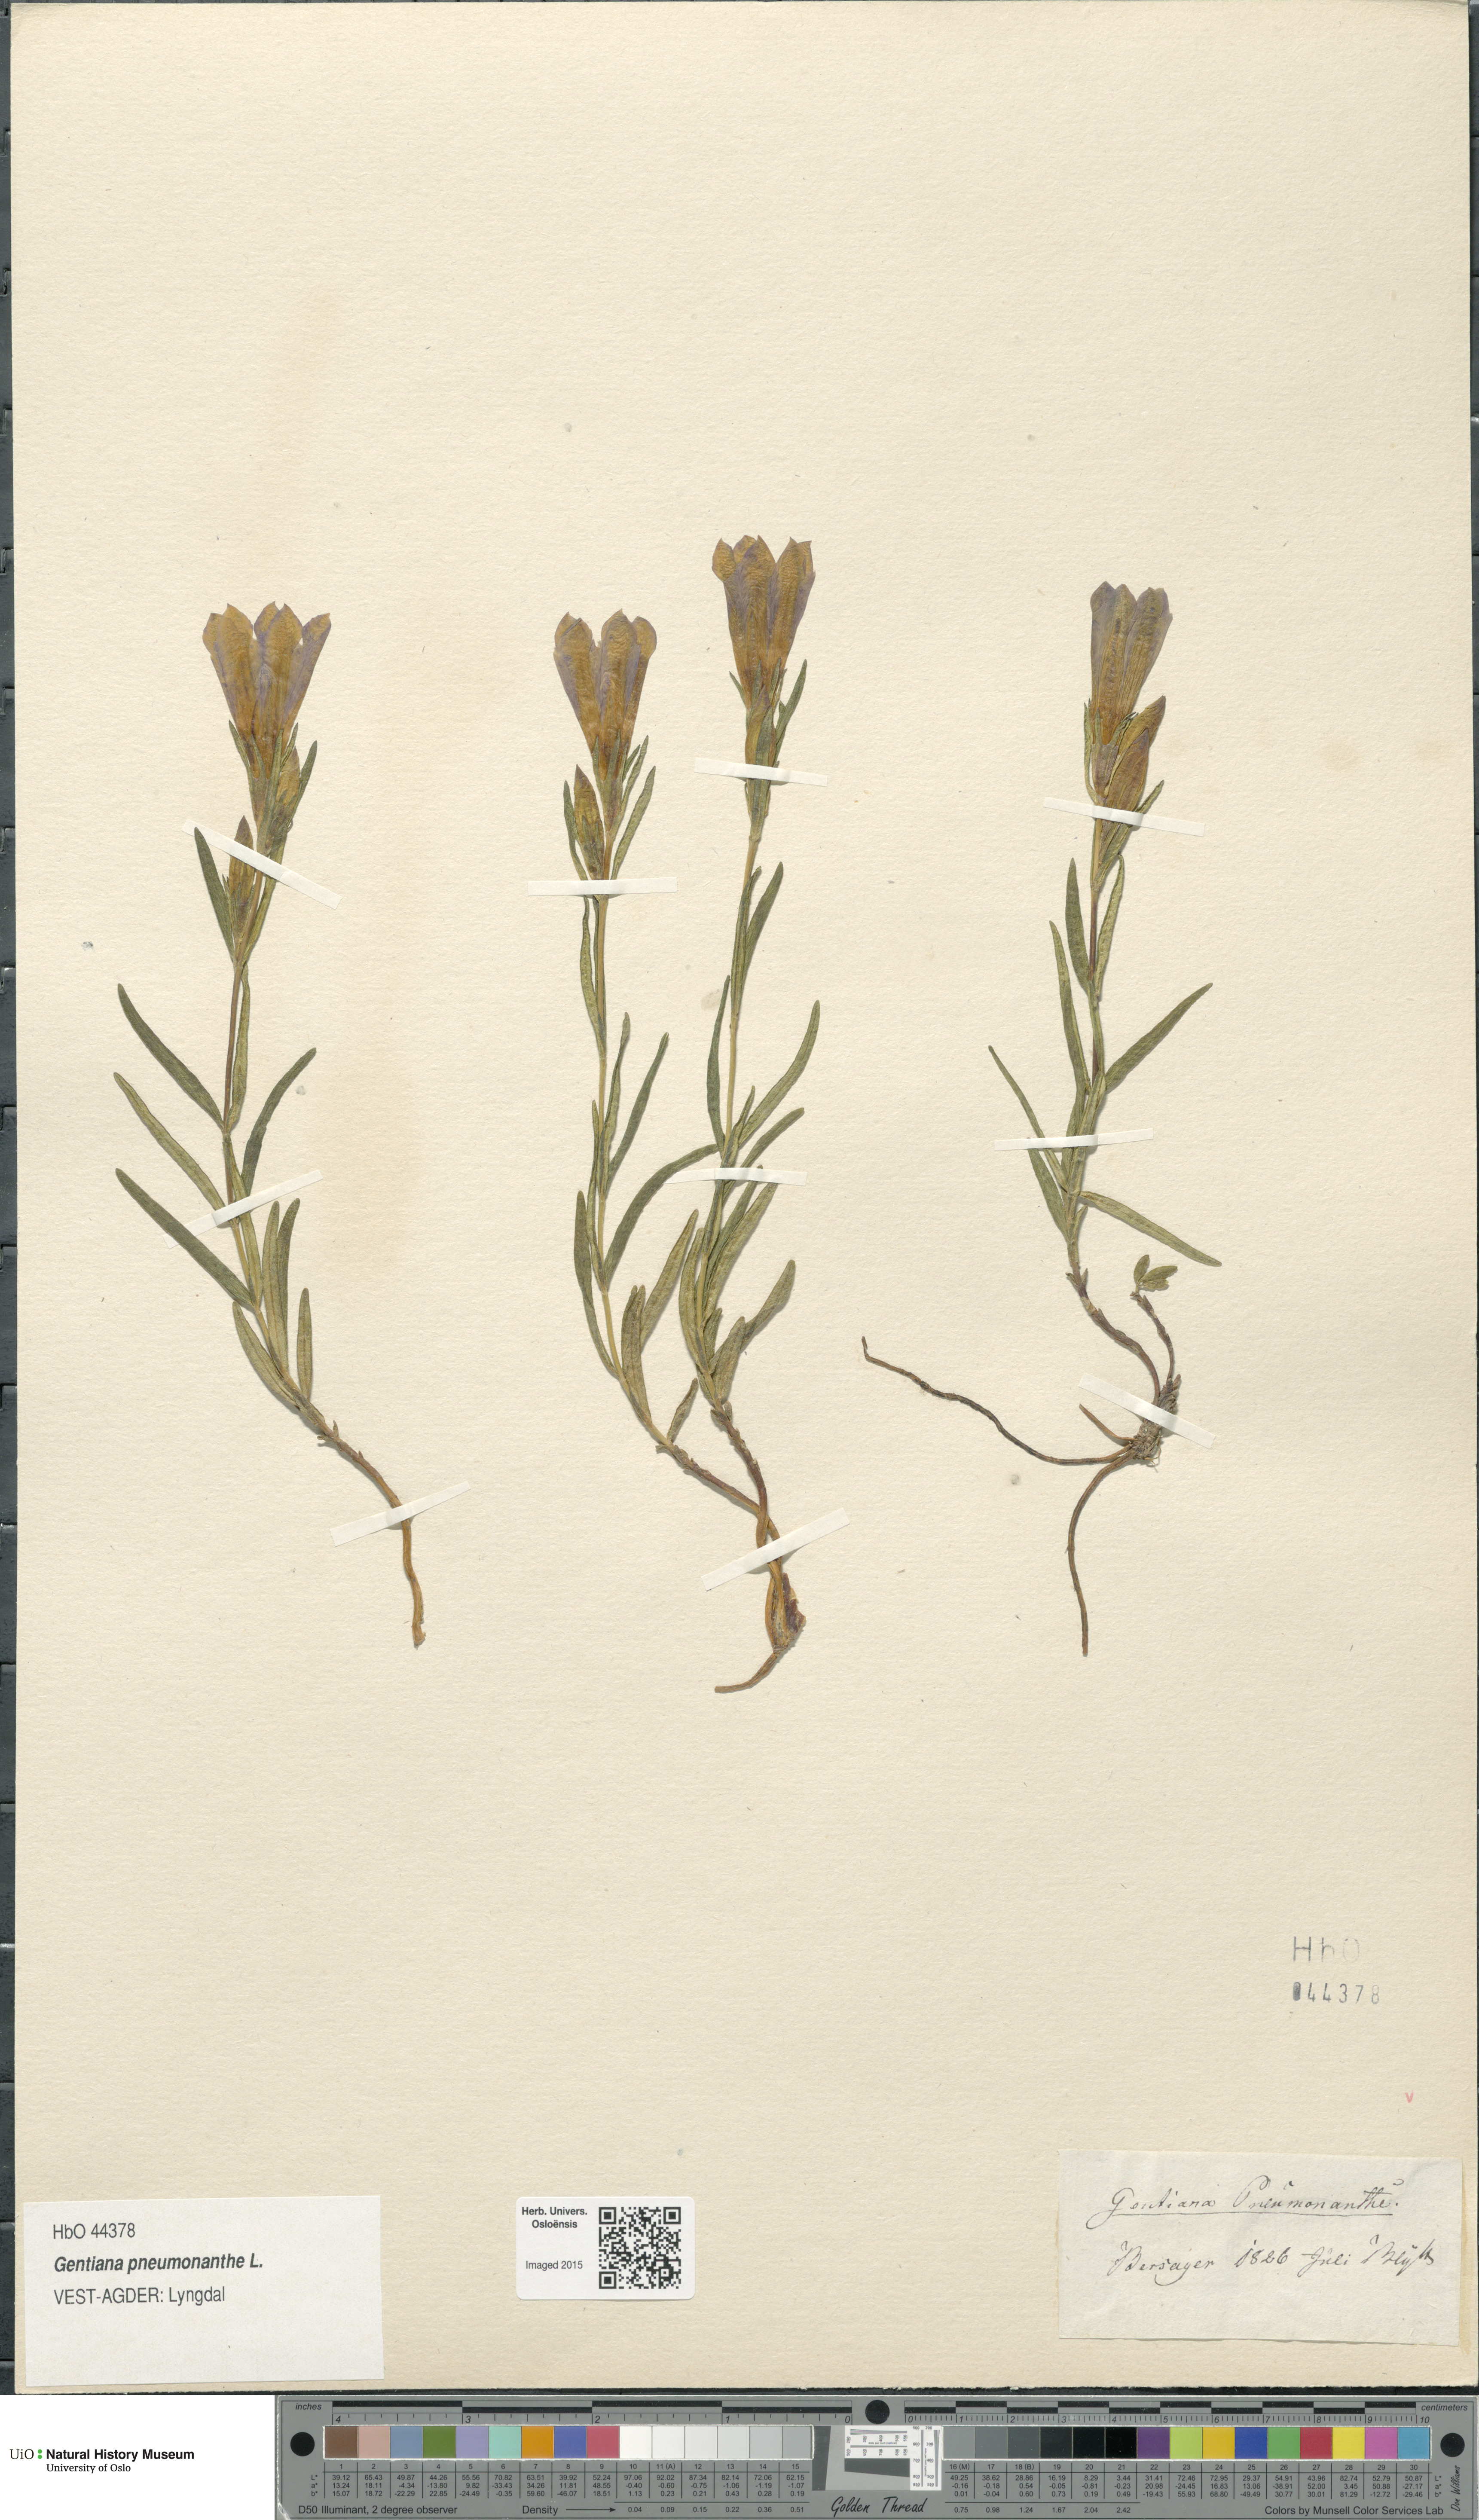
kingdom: Plantae
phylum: Tracheophyta
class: Magnoliopsida
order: Gentianales
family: Gentianaceae
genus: Gentiana
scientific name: Gentiana pneumonanthe
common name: Marsh gentian
